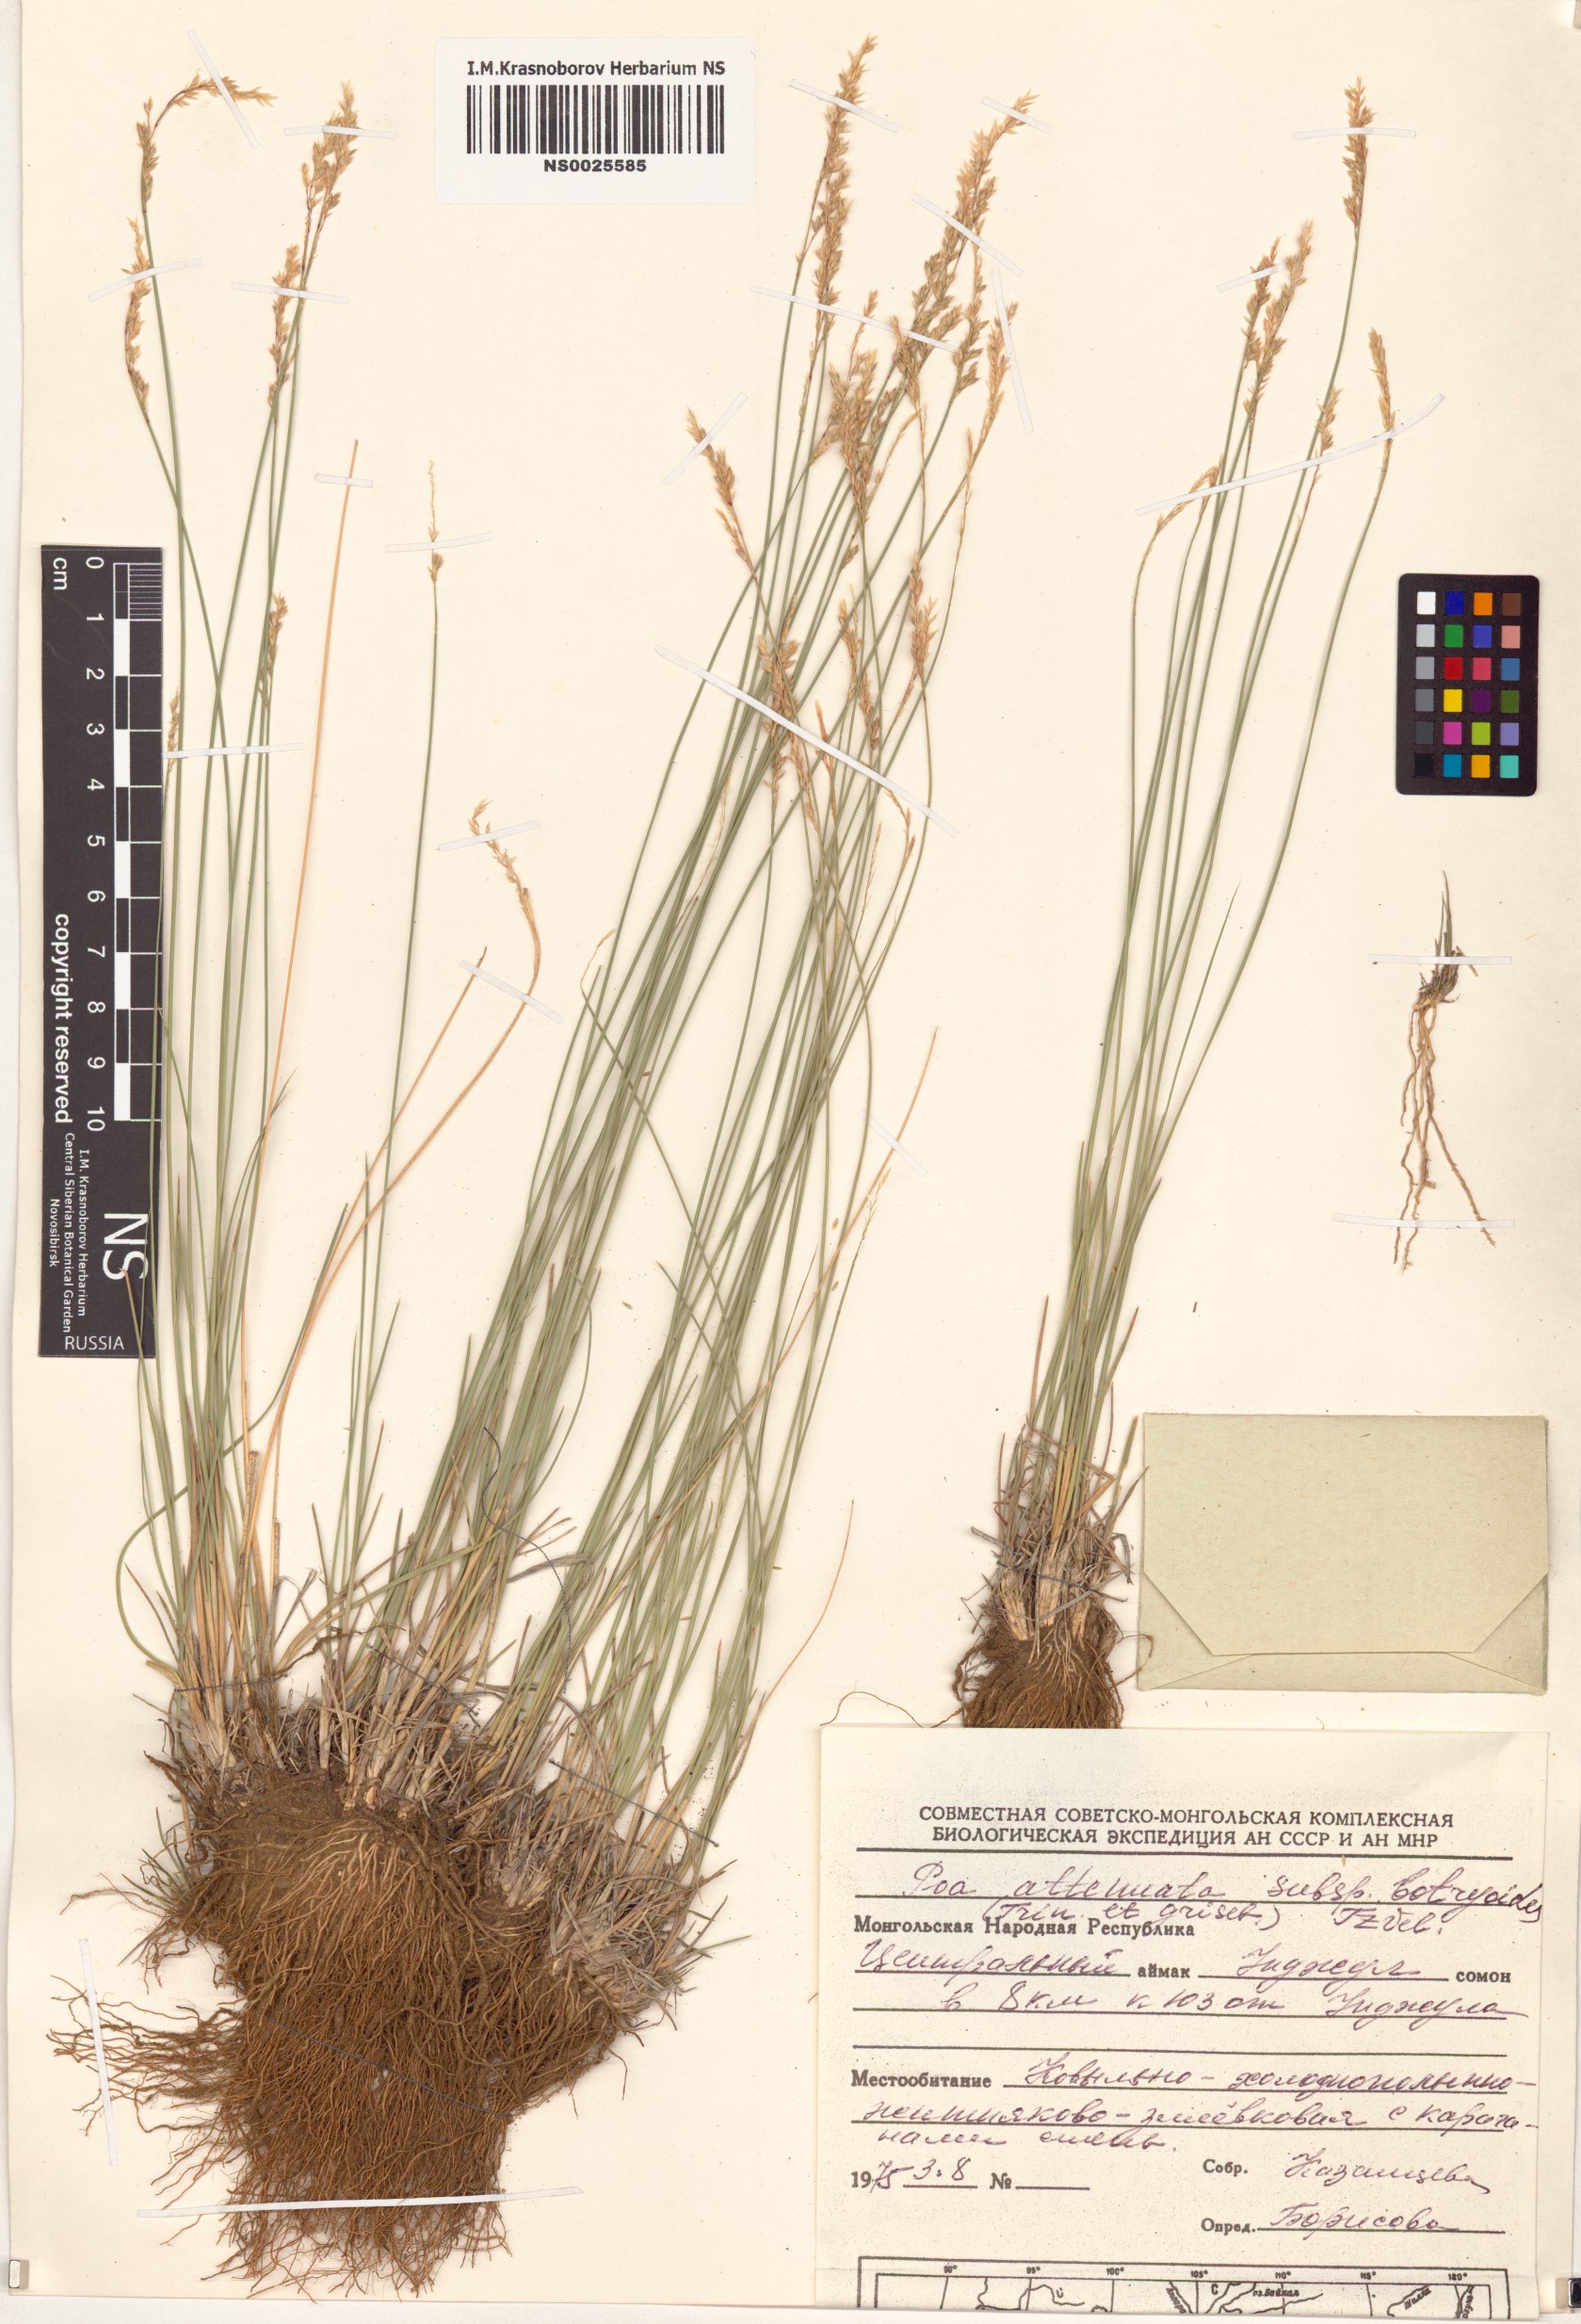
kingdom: Plantae
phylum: Tracheophyta
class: Liliopsida
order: Poales
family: Poaceae
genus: Poa
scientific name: Poa attenuata
